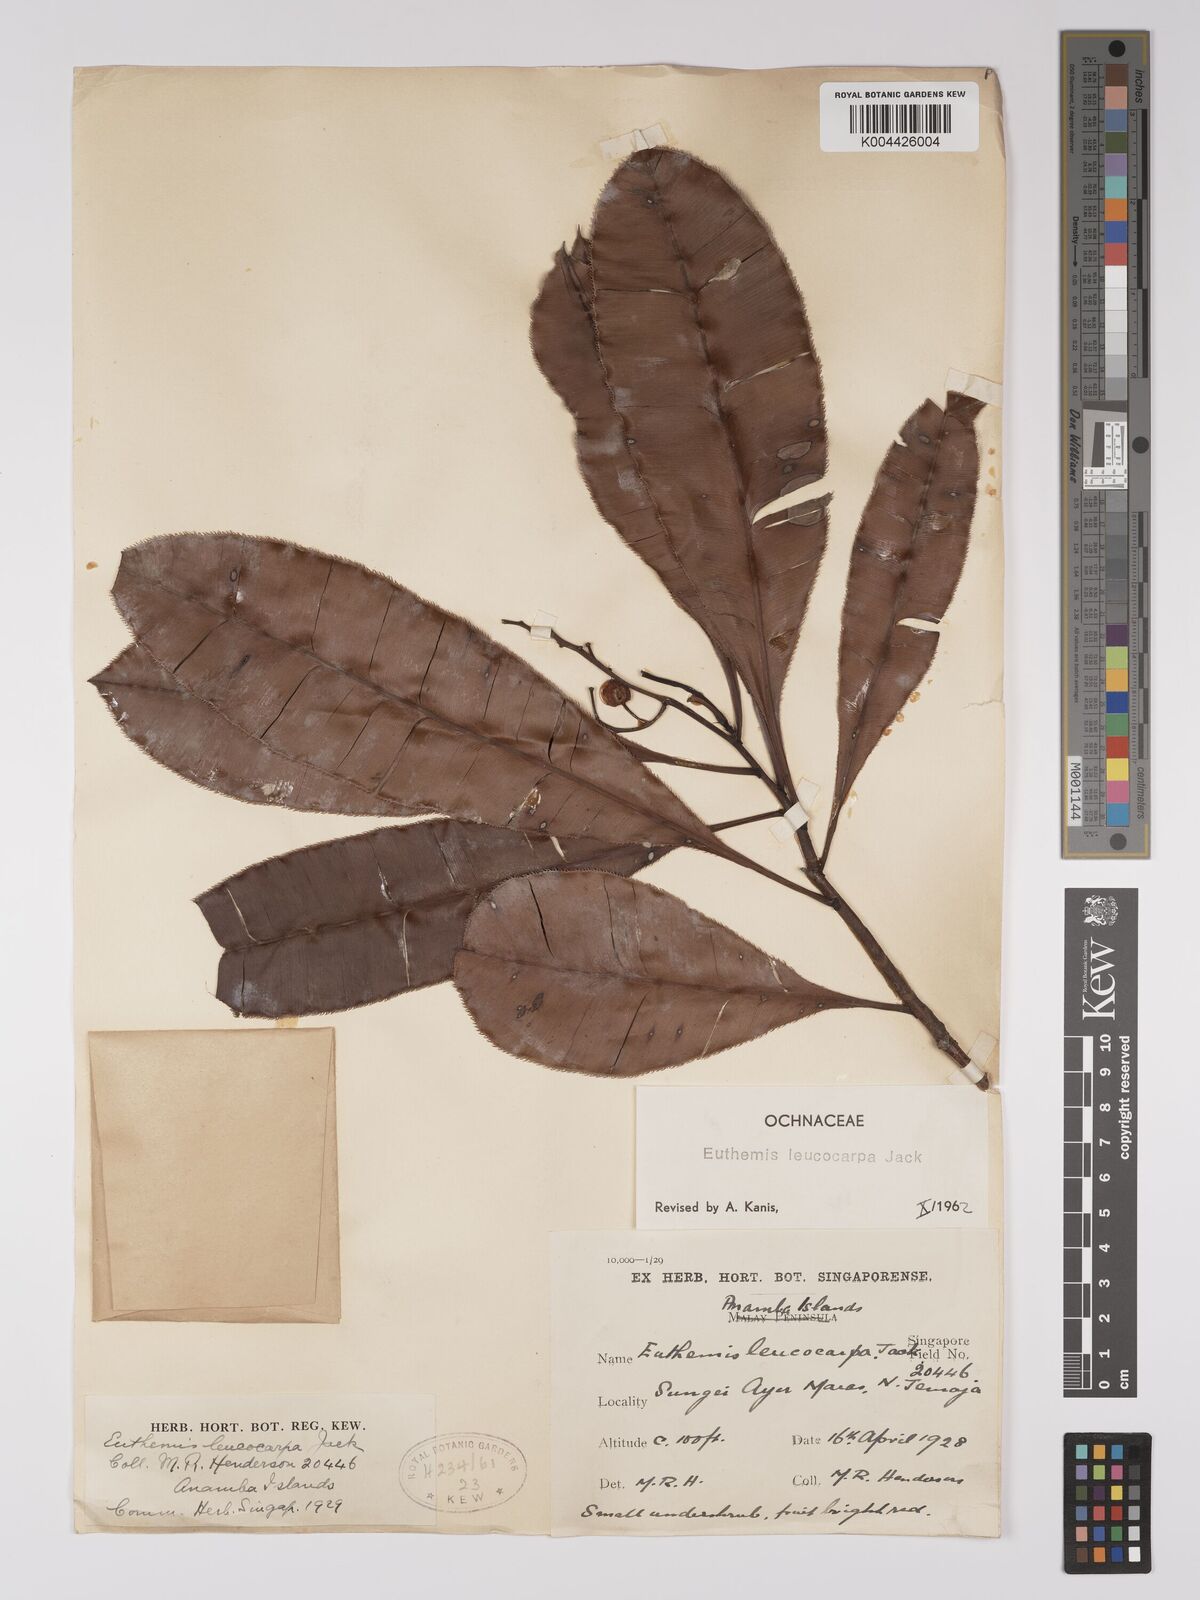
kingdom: Plantae
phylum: Tracheophyta
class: Magnoliopsida
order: Malpighiales
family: Ochnaceae
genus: Euthemis
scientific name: Euthemis leucocarpa
